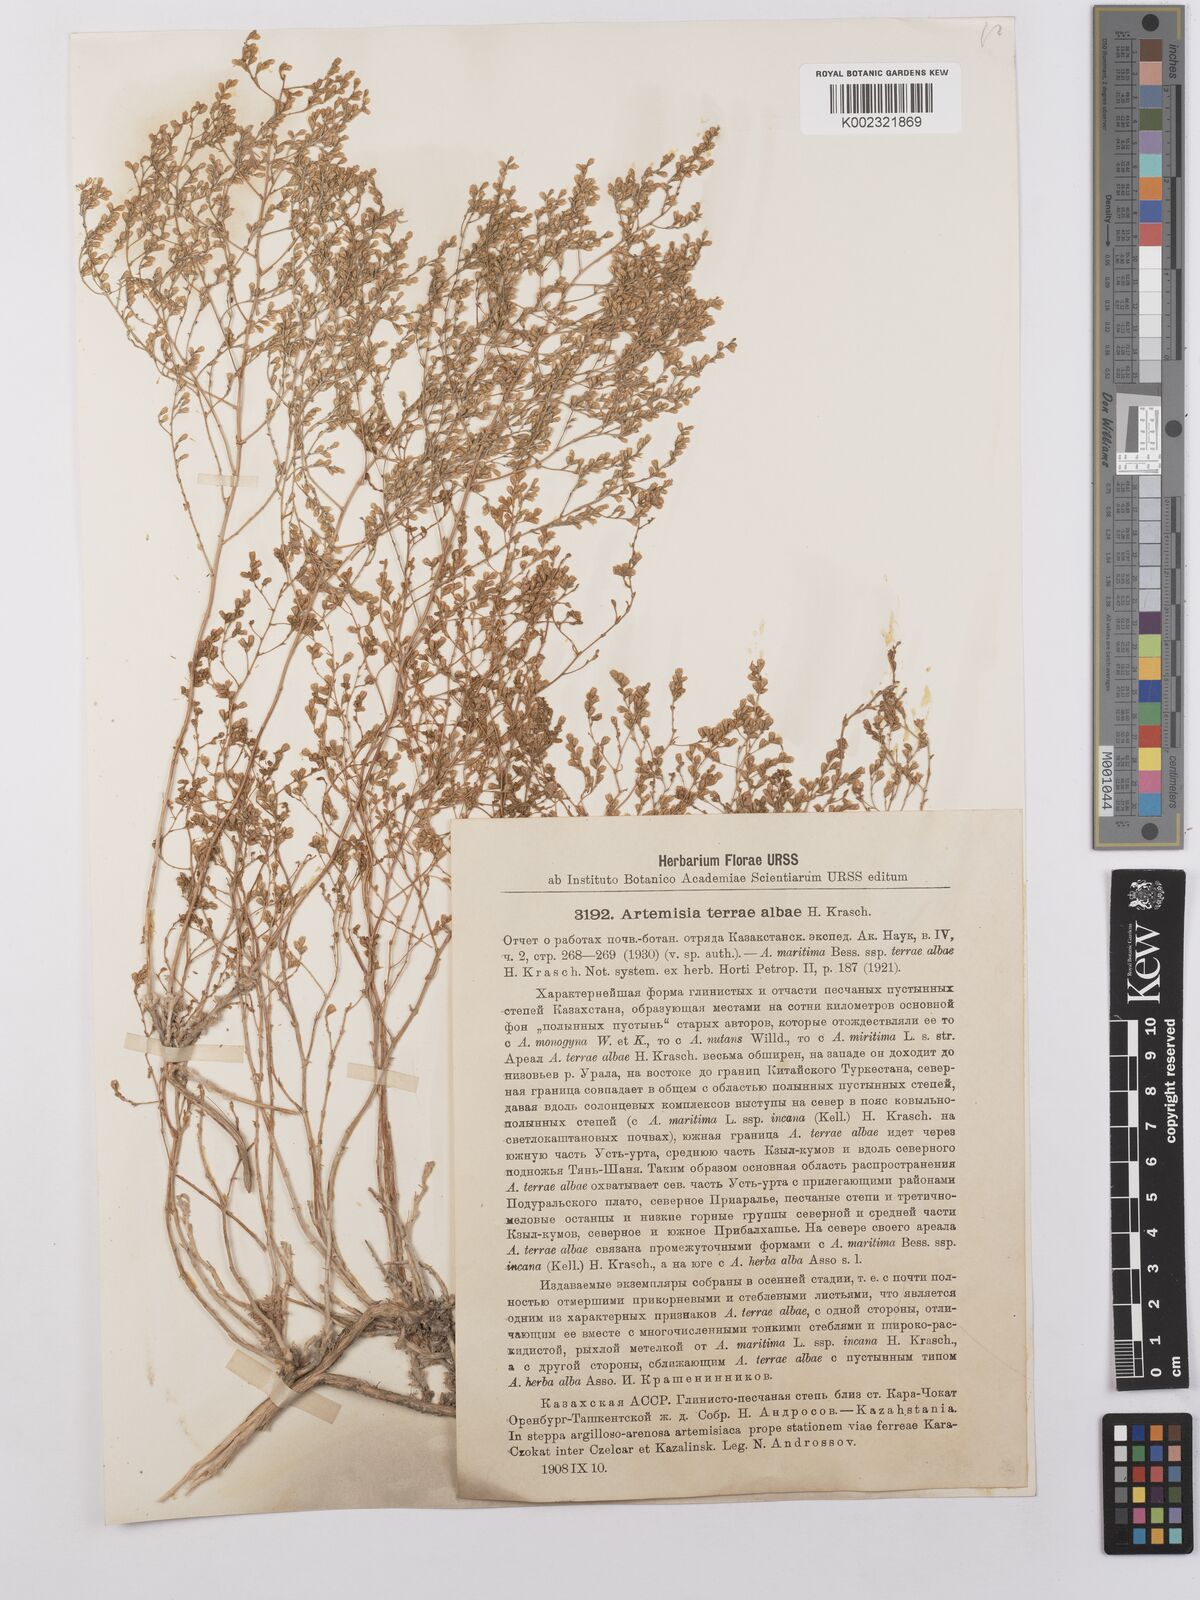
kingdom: Plantae
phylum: Tracheophyta
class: Magnoliopsida
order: Asterales
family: Asteraceae
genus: Artemisia
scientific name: Artemisia terrae-albae
